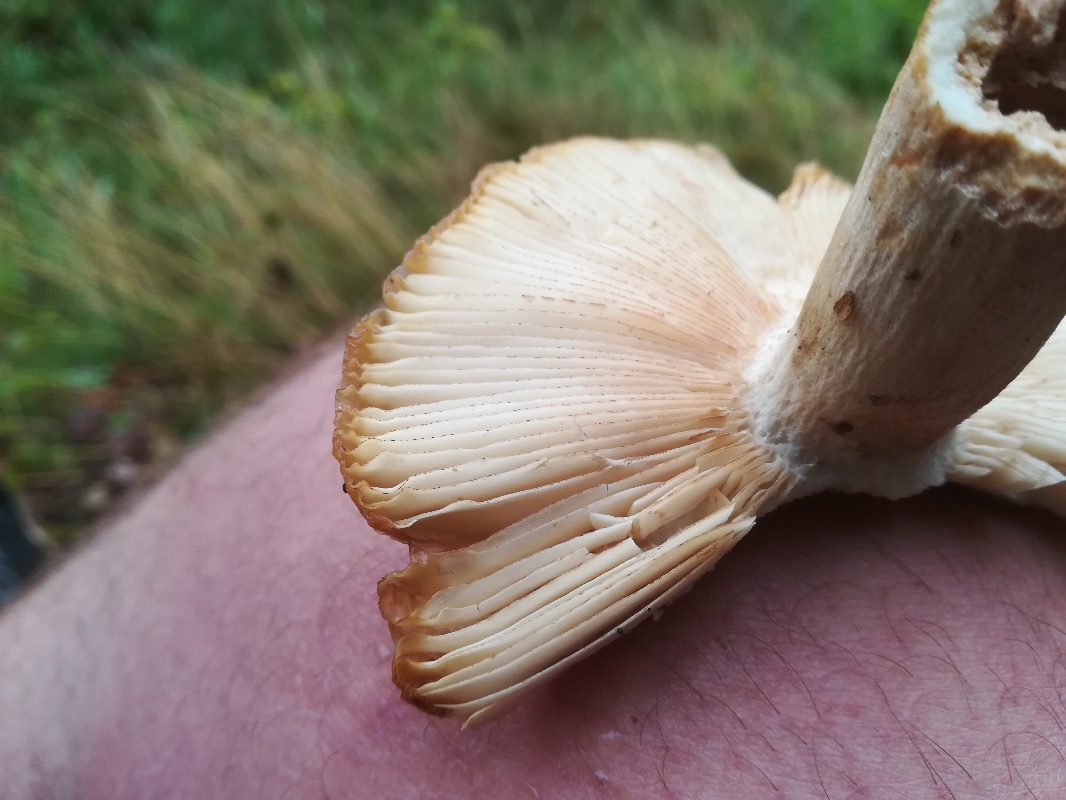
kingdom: Fungi
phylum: Basidiomycota
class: Agaricomycetes
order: Russulales
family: Russulaceae
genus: Russula
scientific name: Russula illota
